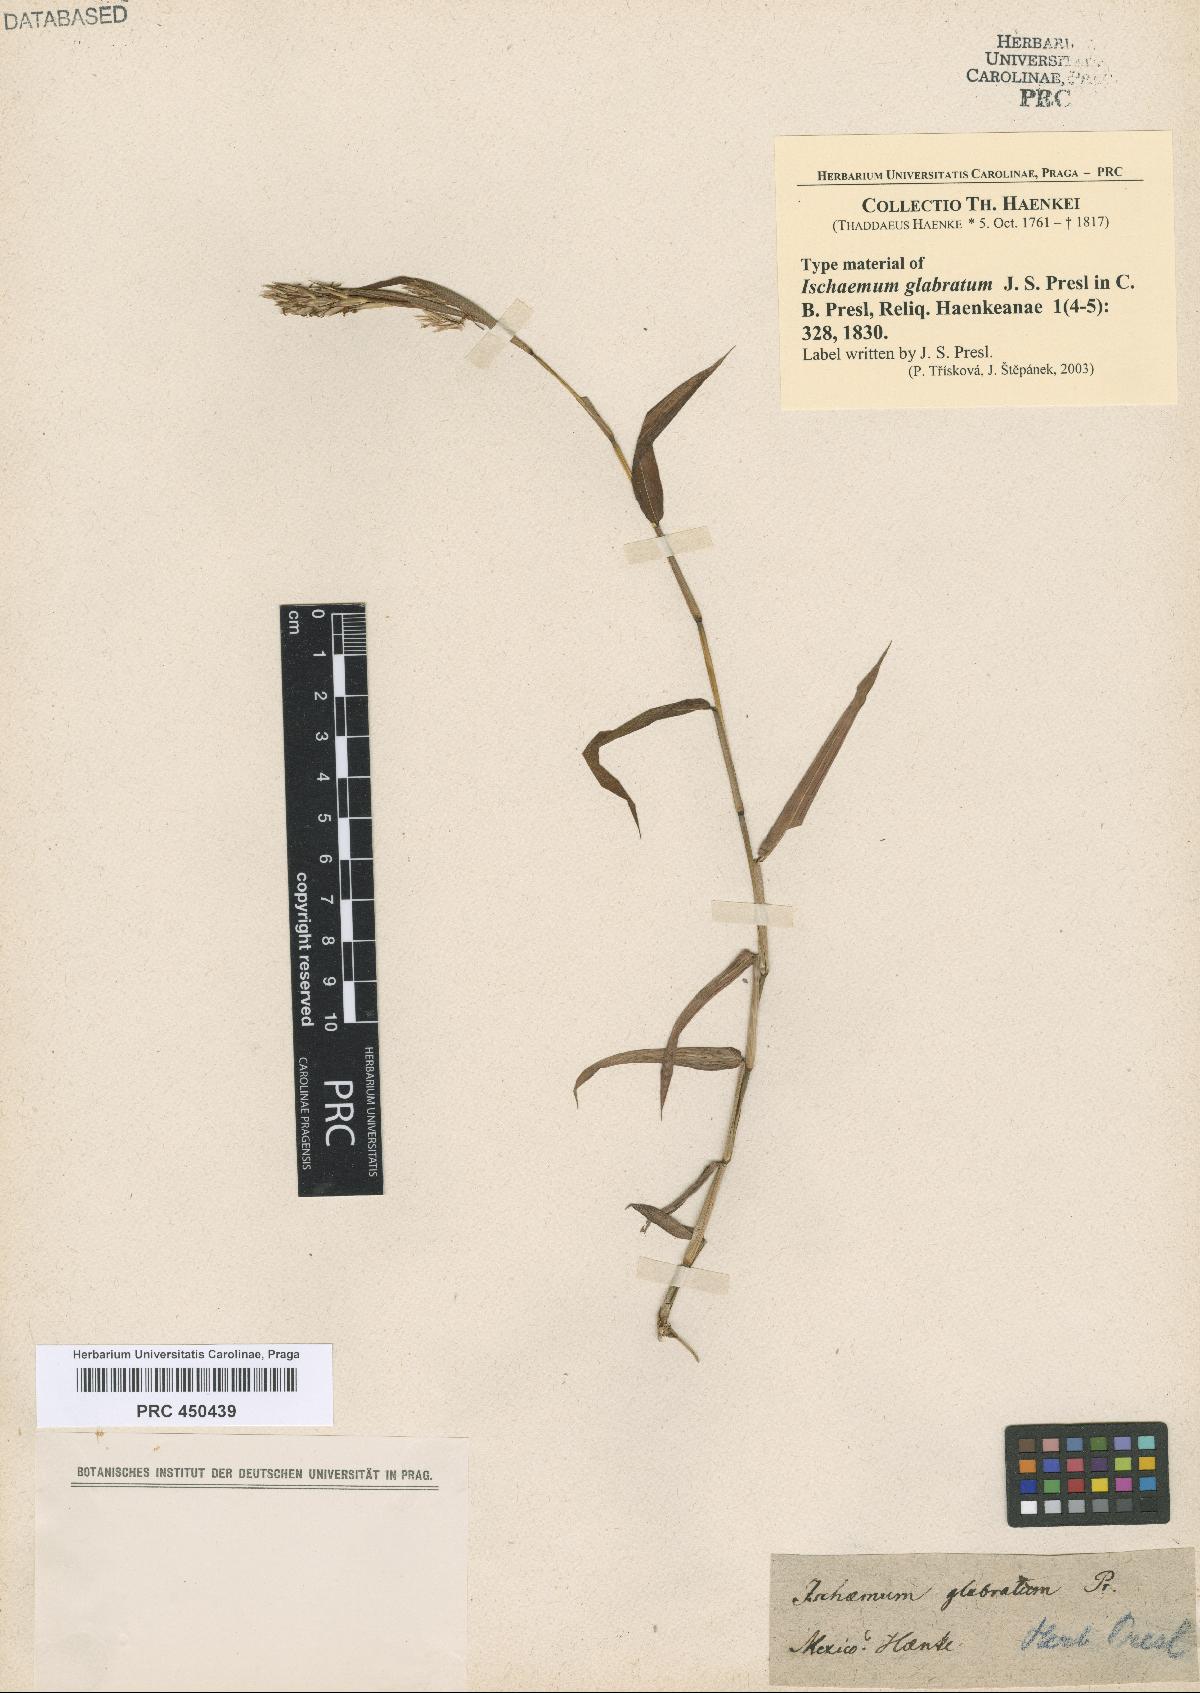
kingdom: Plantae
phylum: Tracheophyta
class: Liliopsida
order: Poales
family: Poaceae
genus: Ischaemum
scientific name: Ischaemum muticum
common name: Drought grass
